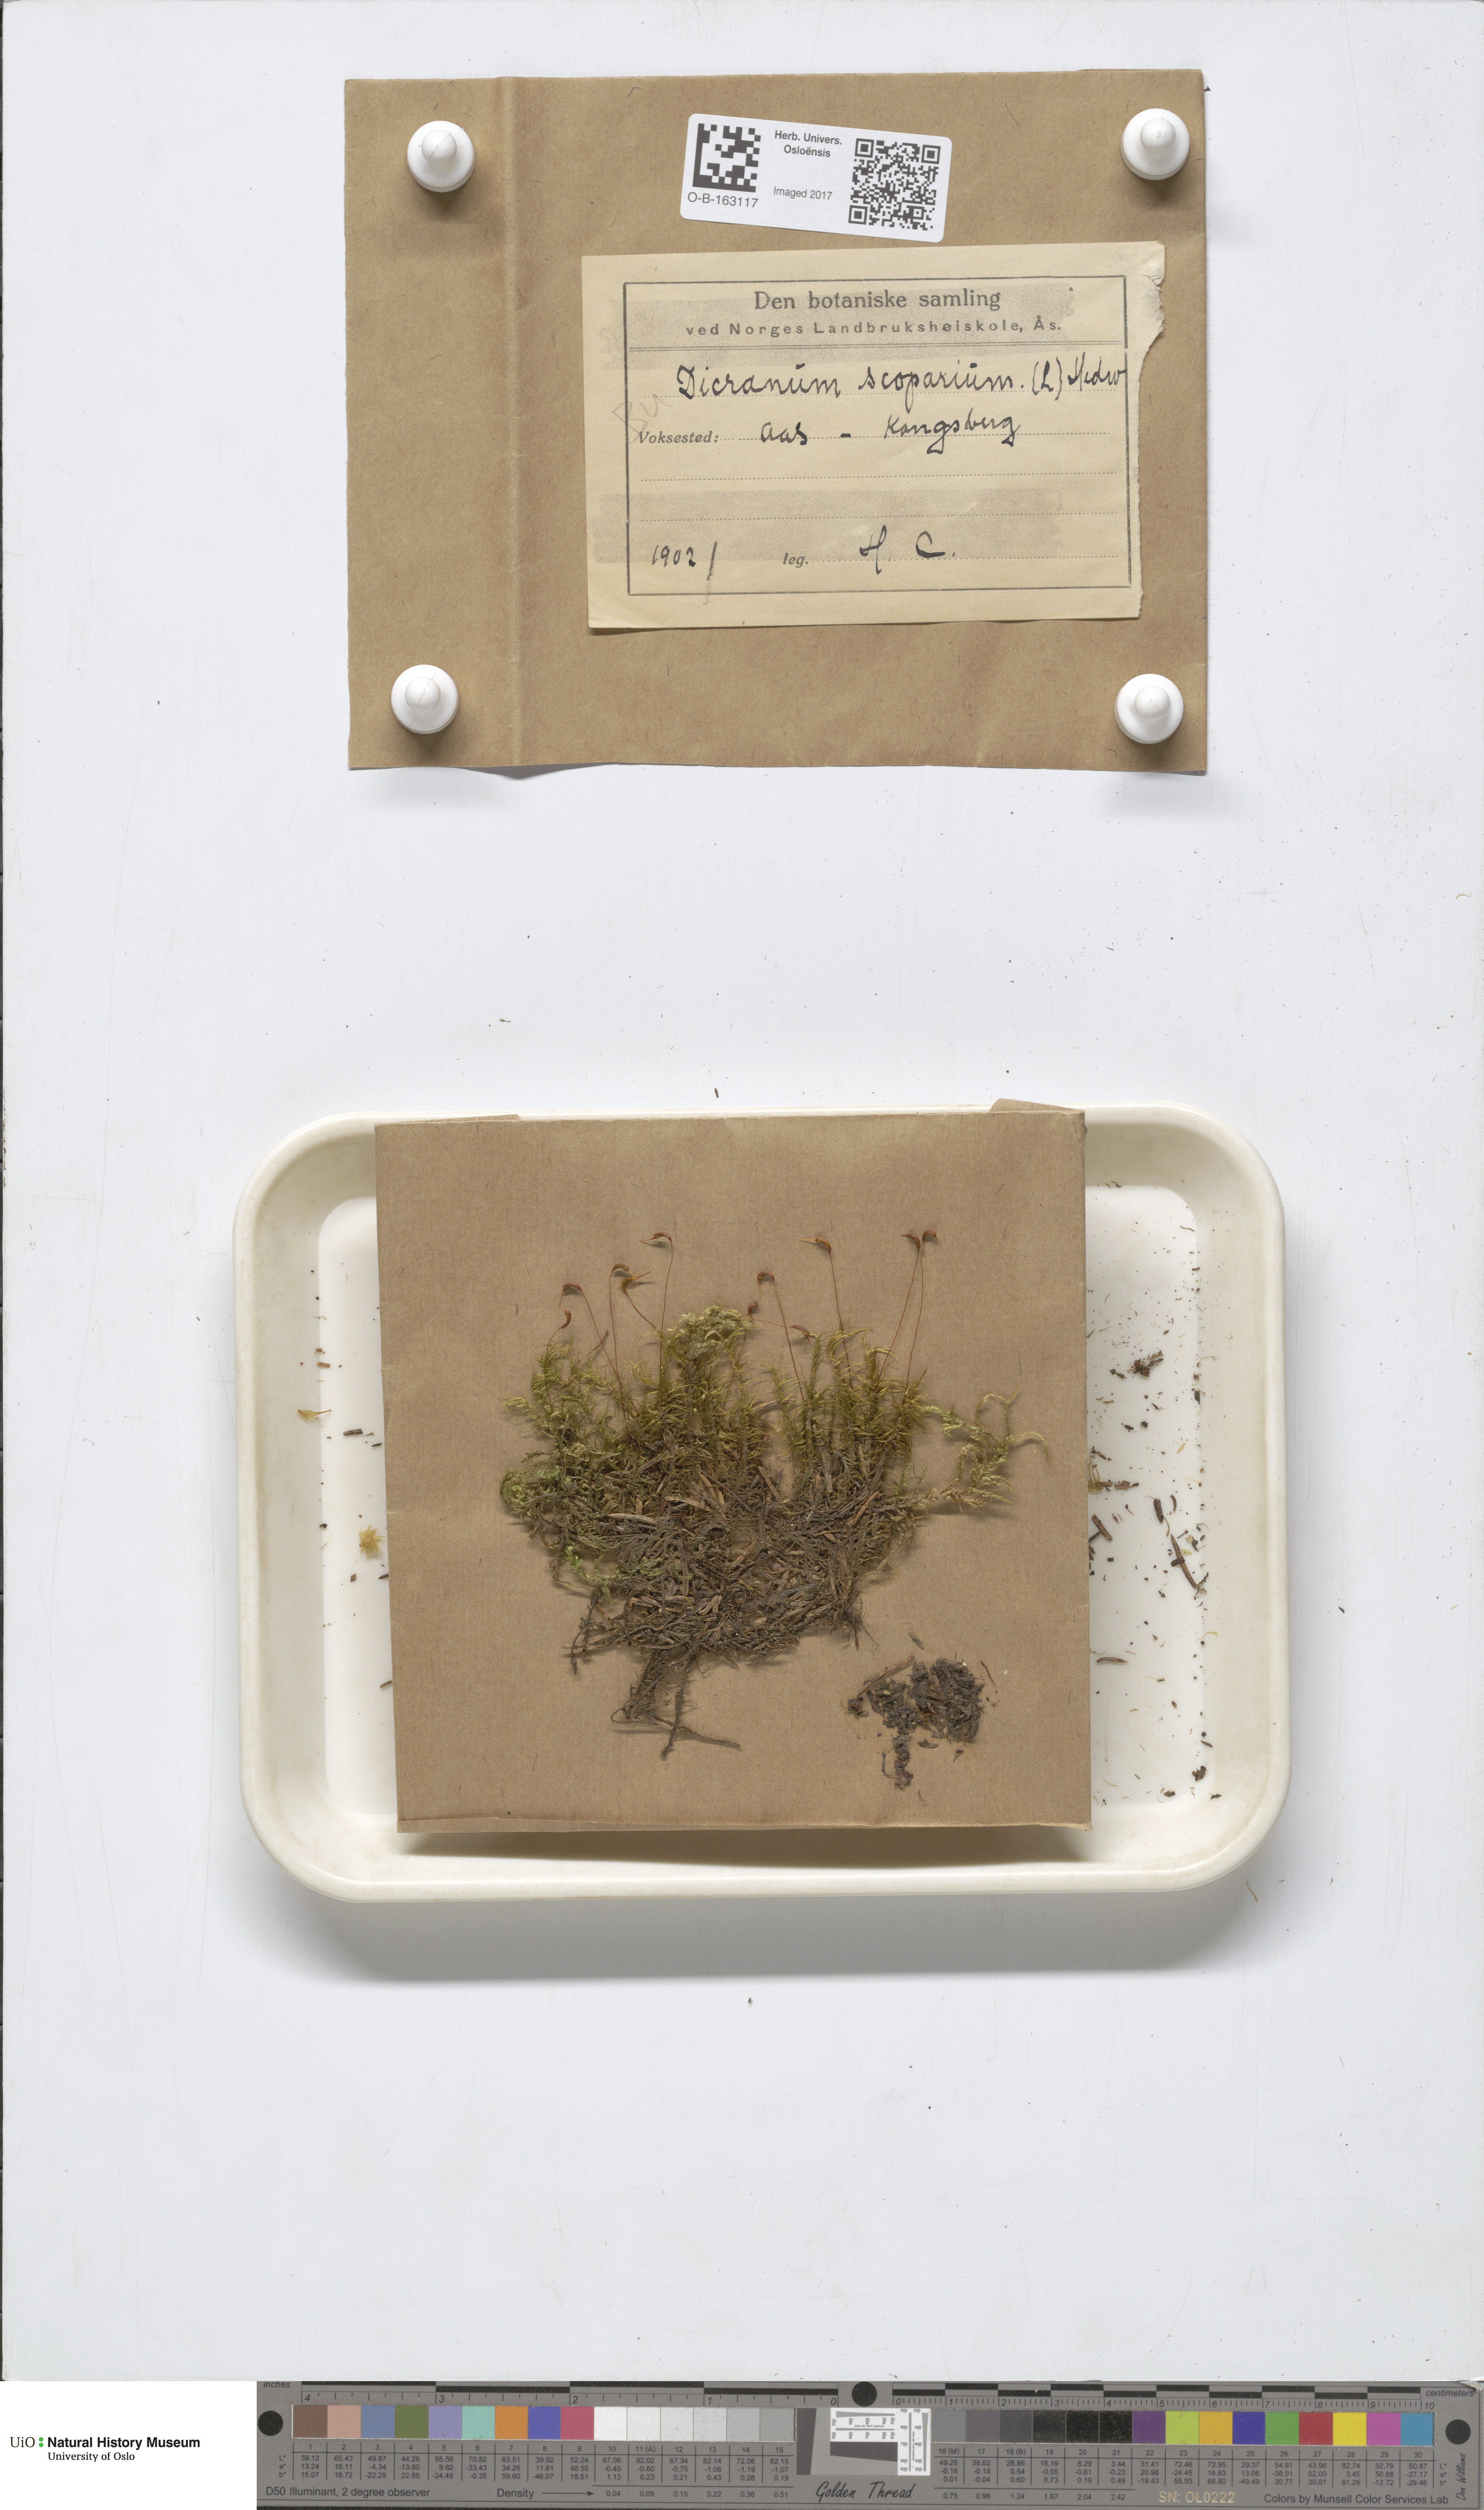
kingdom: Plantae
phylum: Bryophyta
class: Bryopsida
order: Dicranales
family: Dicranaceae
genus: Dicranum
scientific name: Dicranum scoparium
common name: Broom fork-moss
